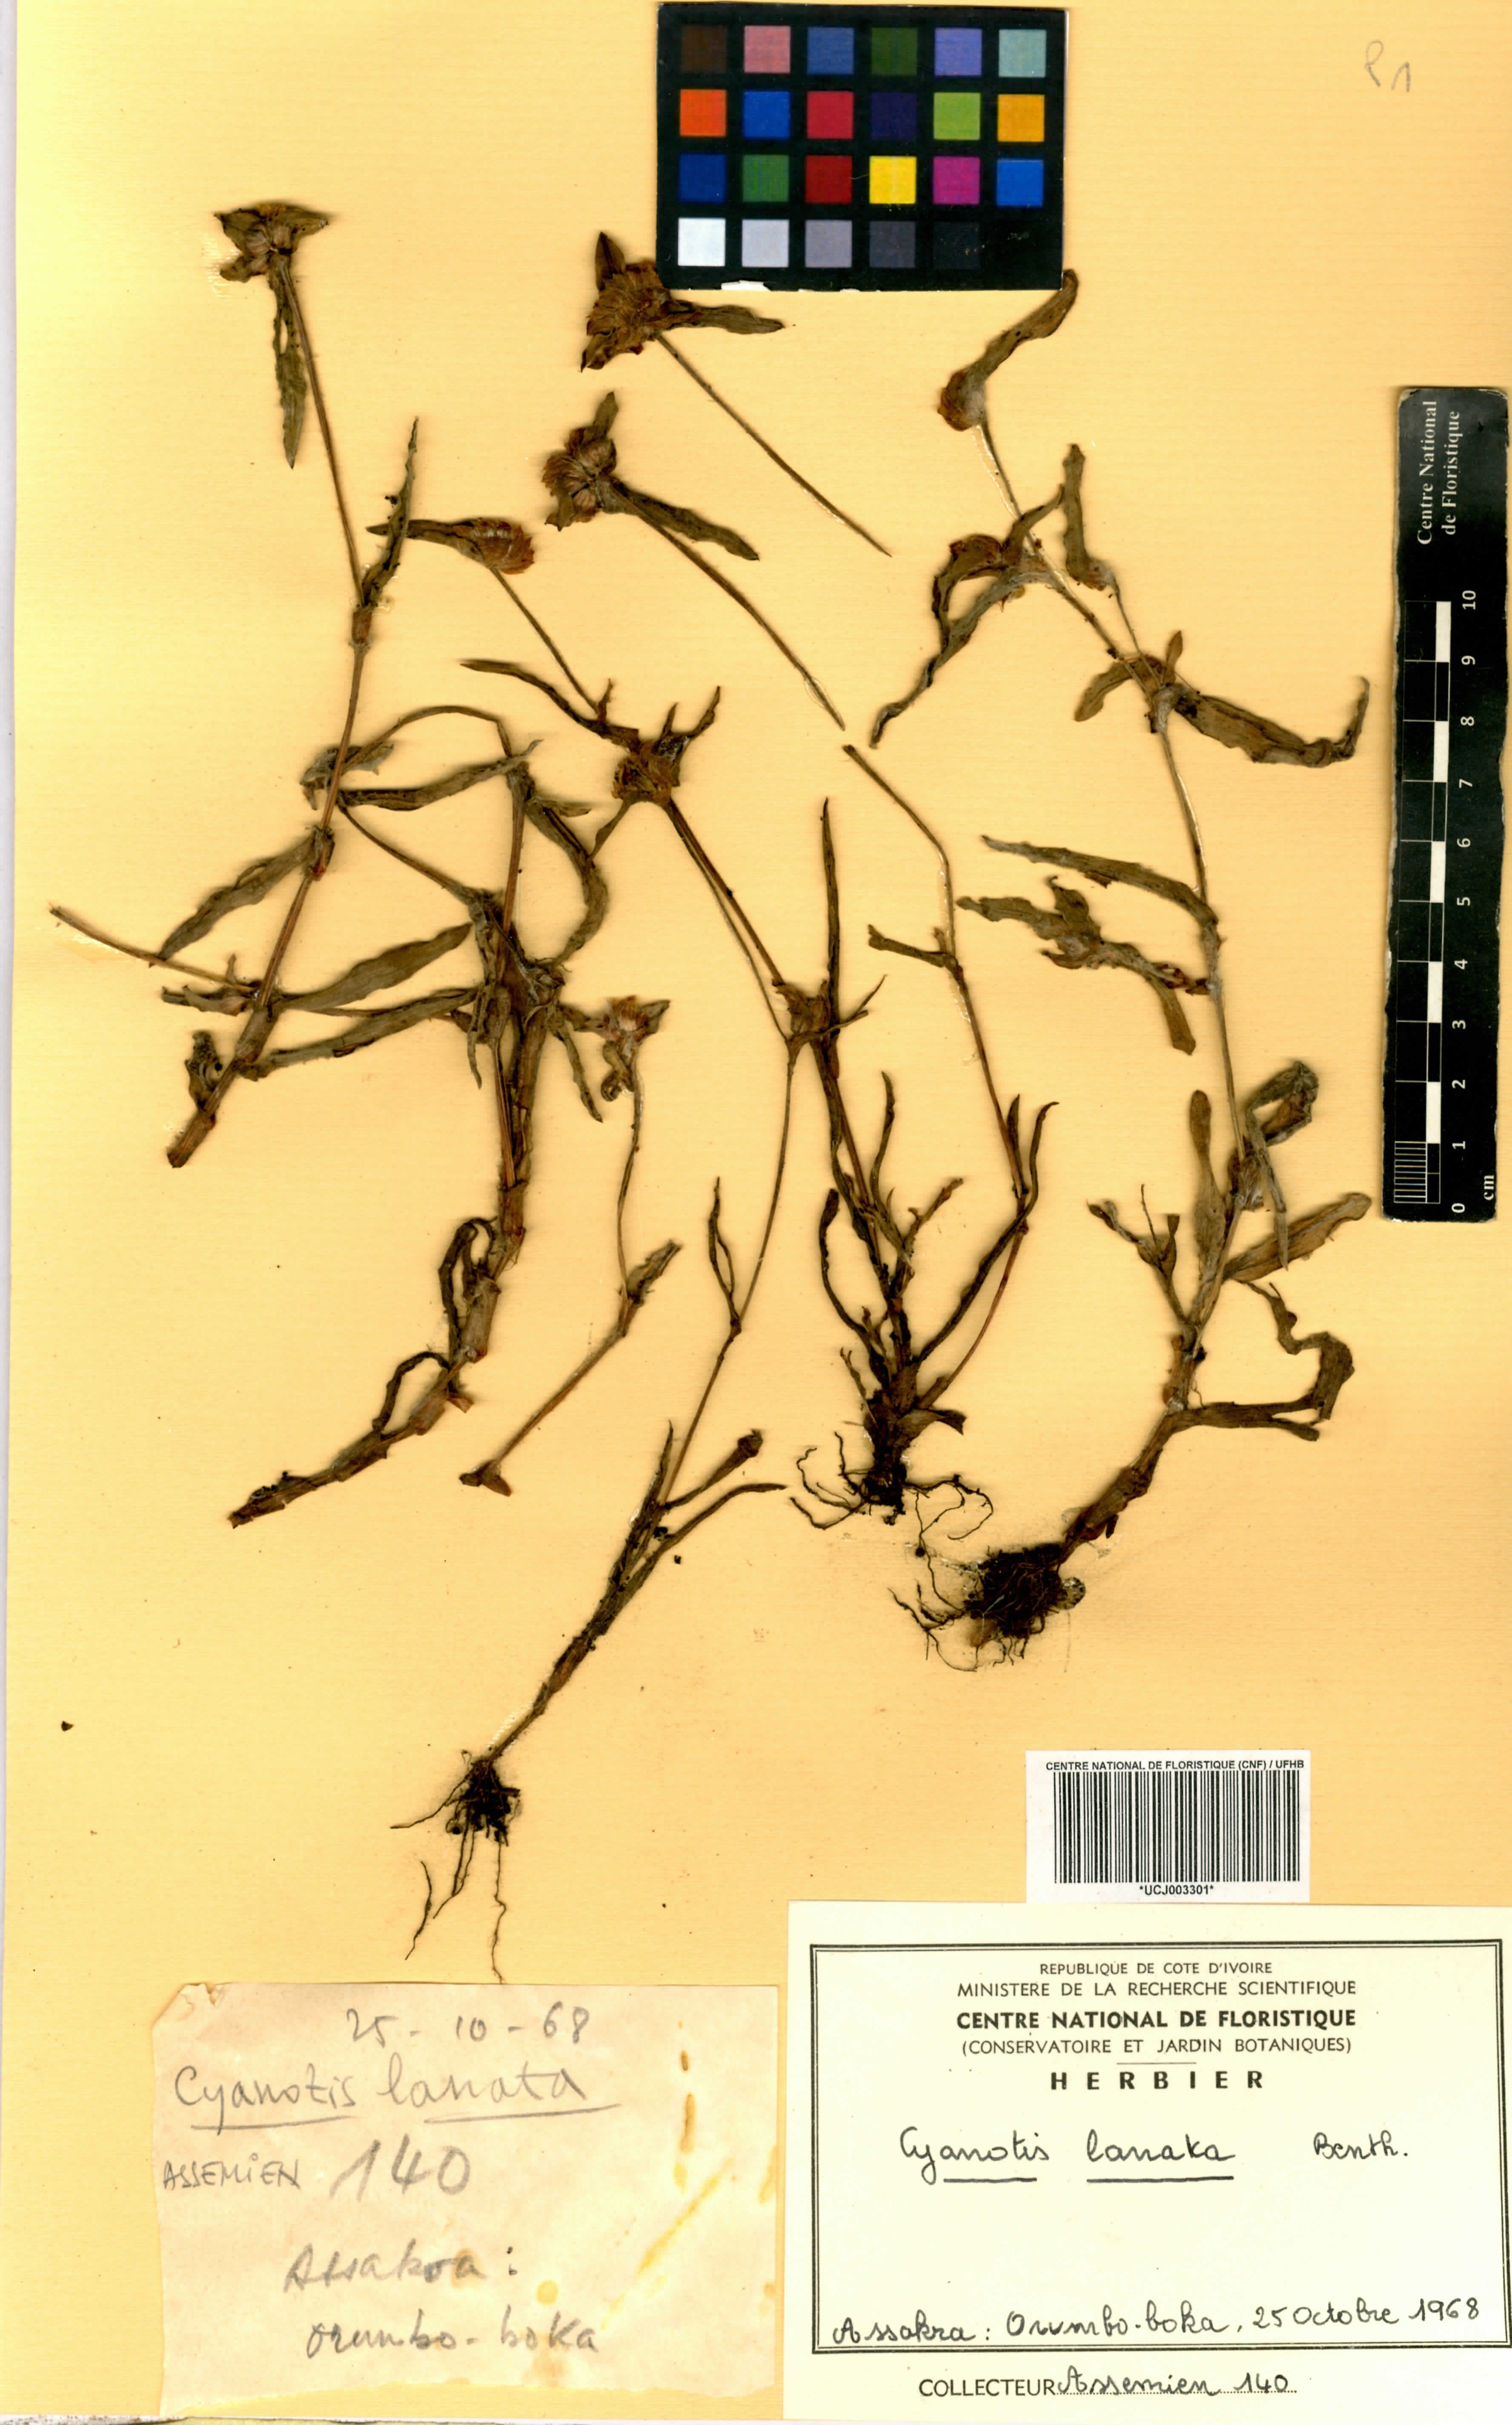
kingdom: Plantae
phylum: Tracheophyta
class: Liliopsida
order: Commelinales
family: Commelinaceae
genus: Cyanotis
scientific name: Cyanotis lanata
